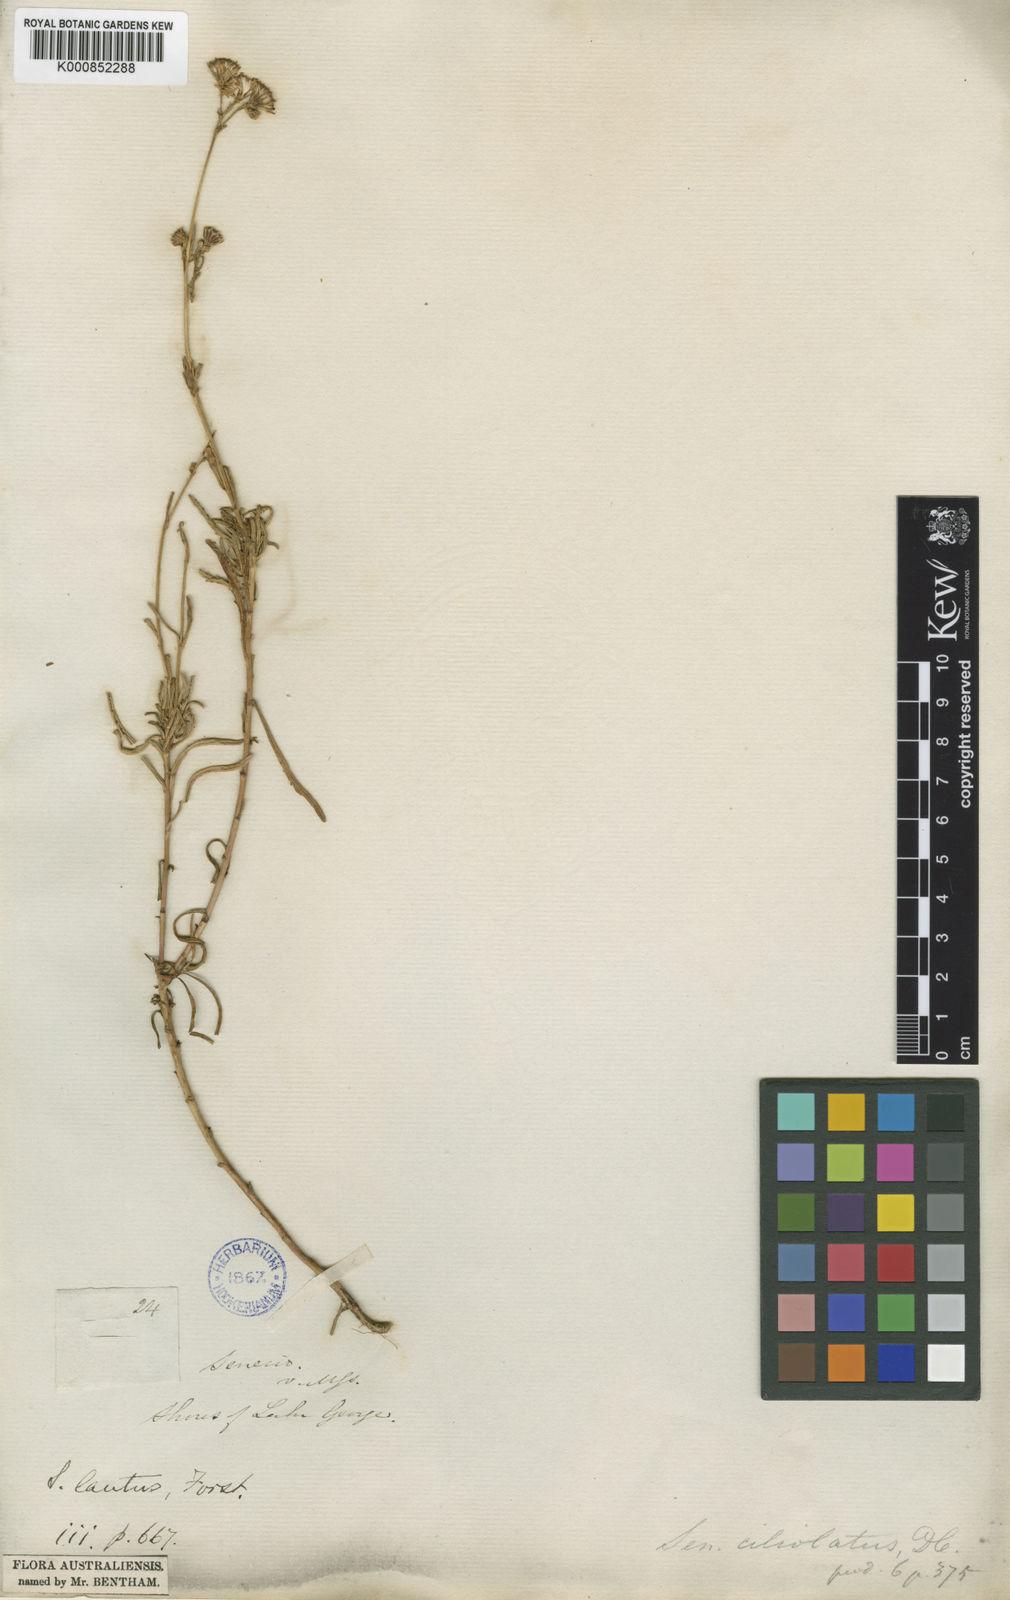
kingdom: Plantae
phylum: Tracheophyta
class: Magnoliopsida
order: Asterales
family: Asteraceae
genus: Senecio
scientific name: Senecio
